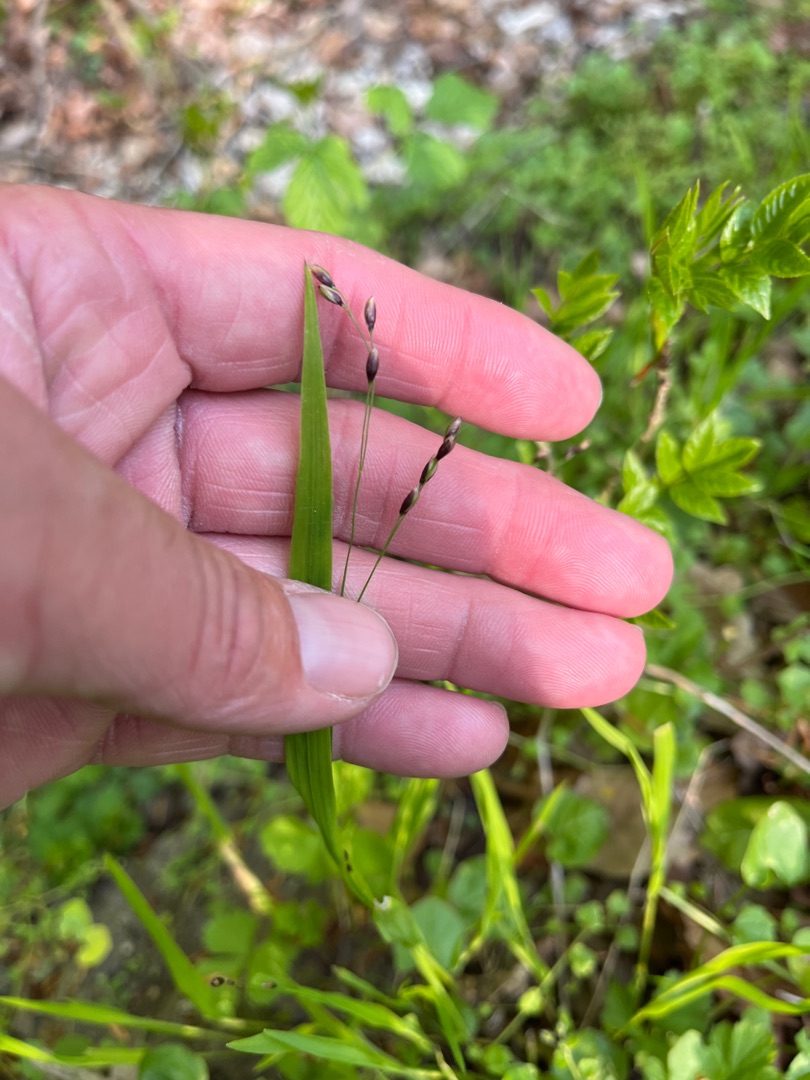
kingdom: Plantae
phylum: Tracheophyta
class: Liliopsida
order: Poales
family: Poaceae
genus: Melica
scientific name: Melica uniflora
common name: Enblomstret flitteraks
